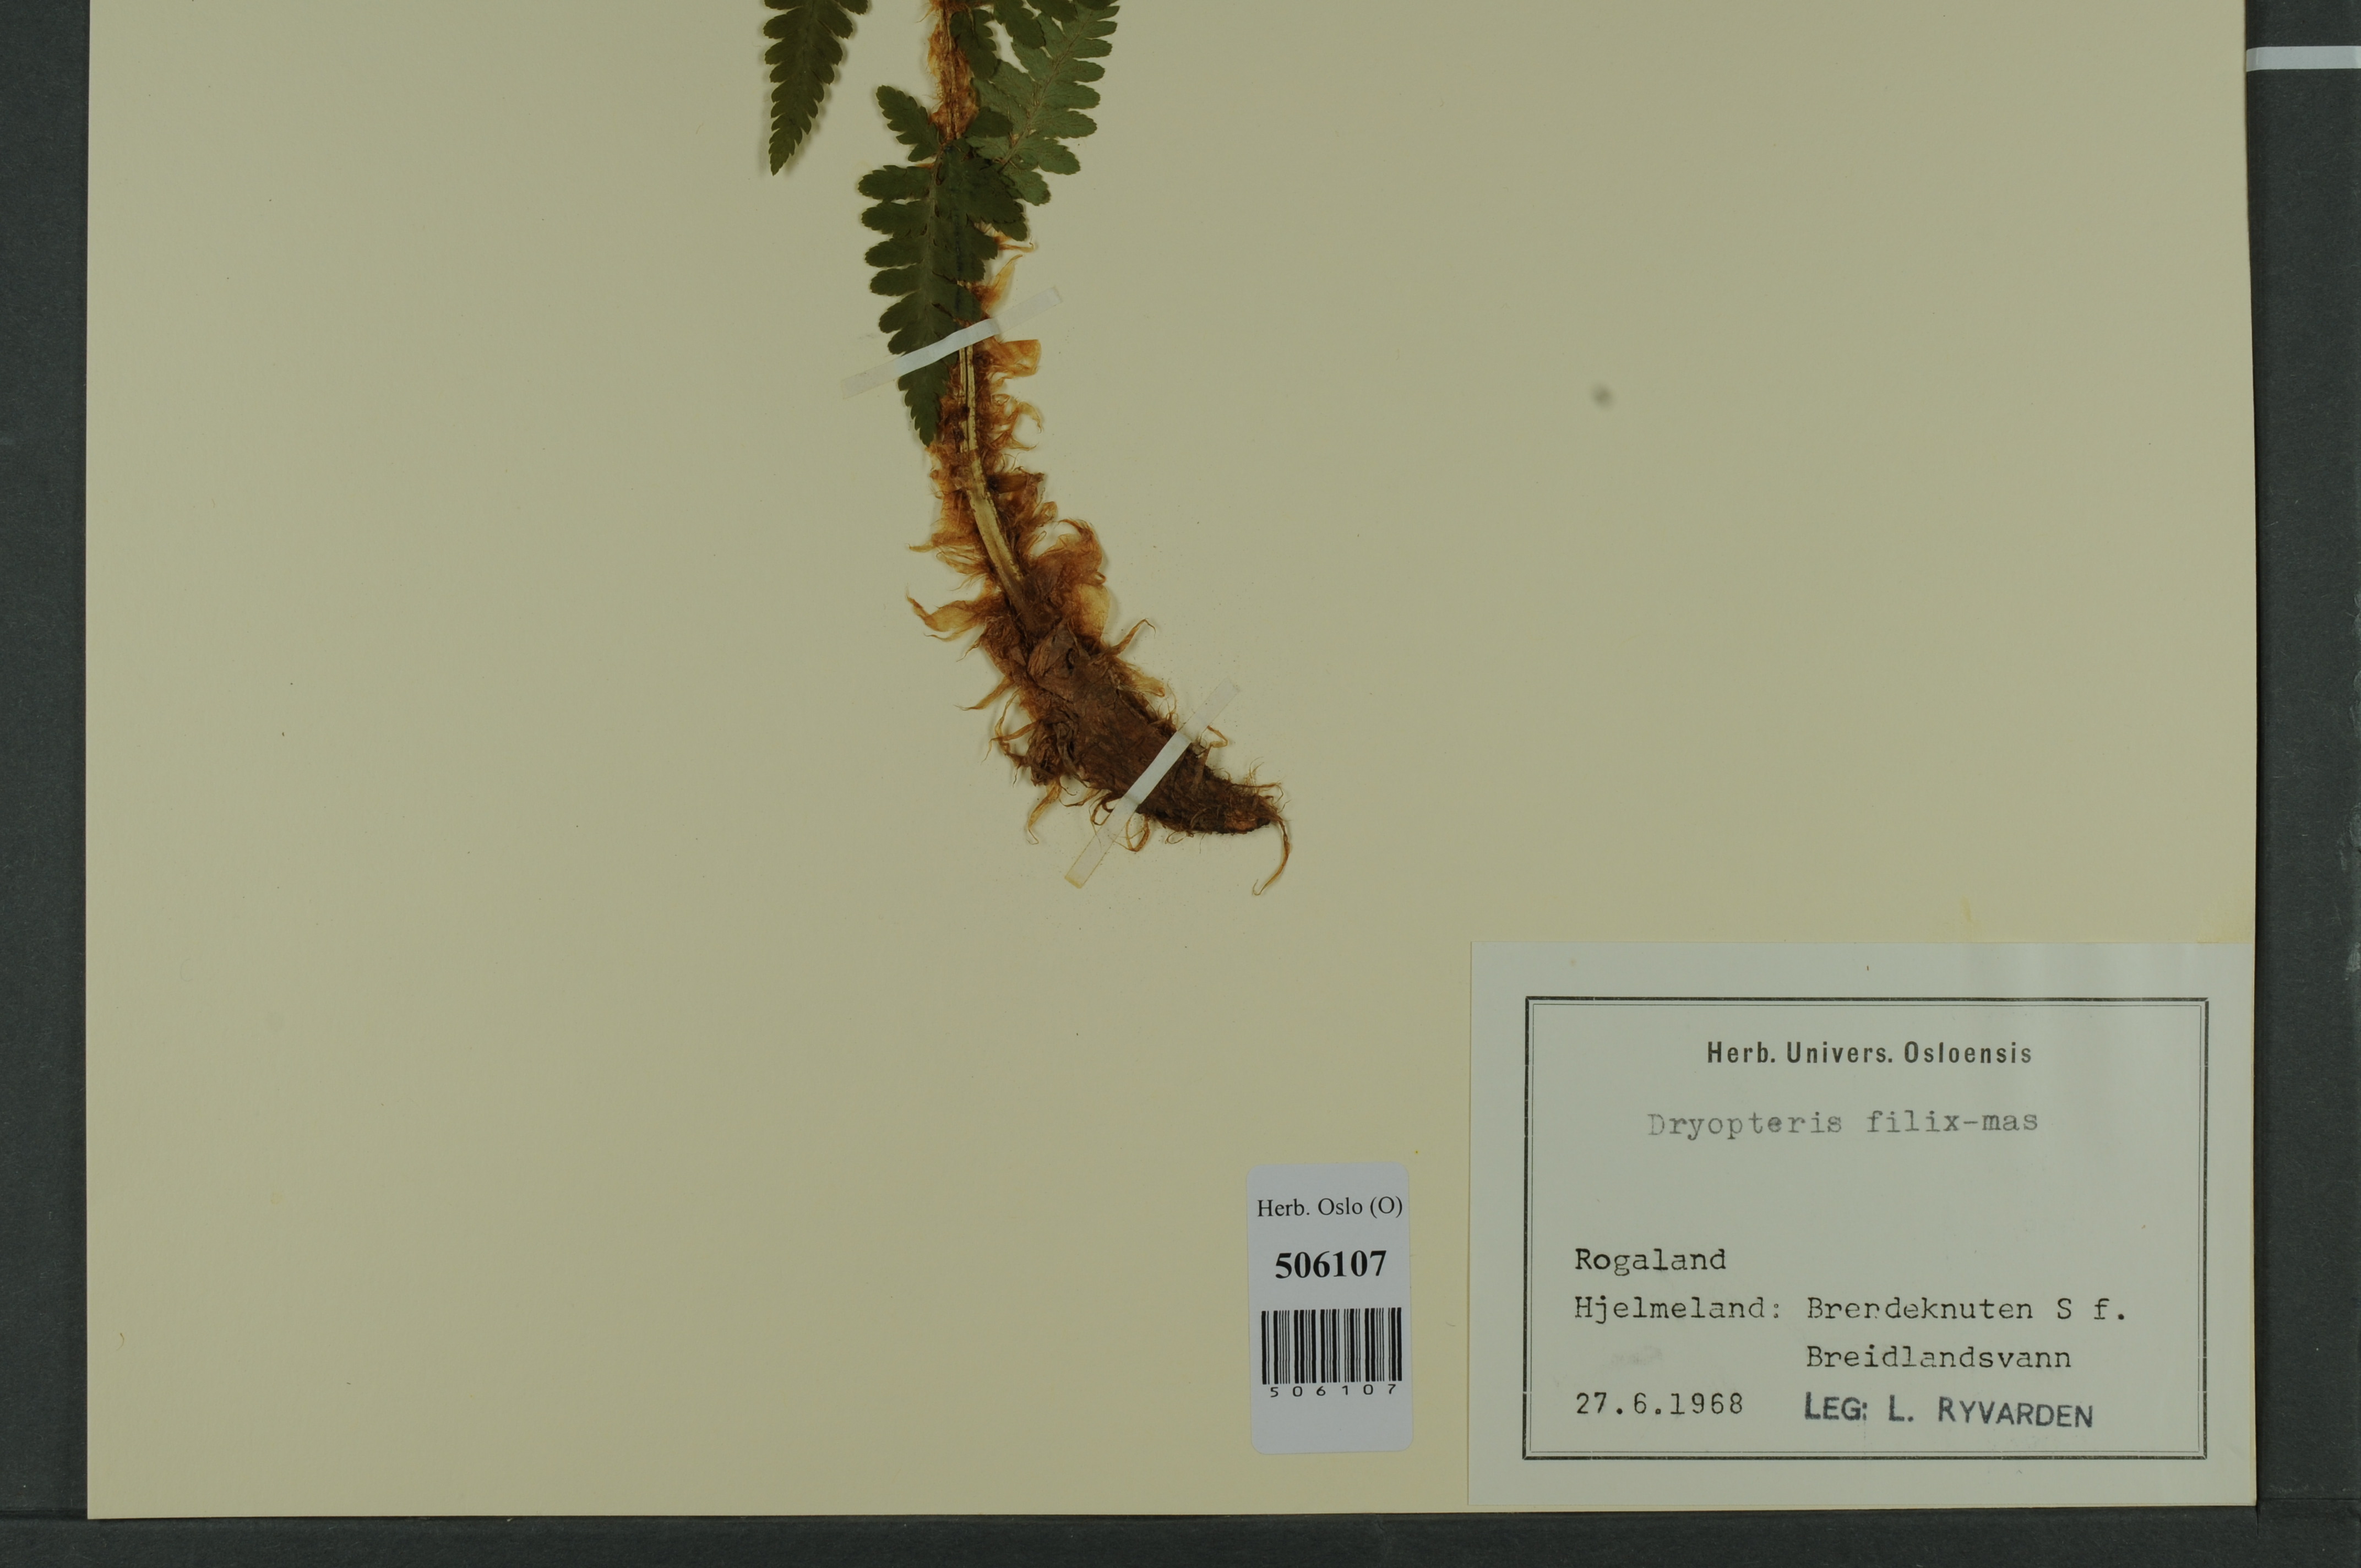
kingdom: Plantae
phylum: Tracheophyta
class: Polypodiopsida
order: Polypodiales
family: Dryopteridaceae
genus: Dryopteris
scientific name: Dryopteris filix-mas
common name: Male fern
